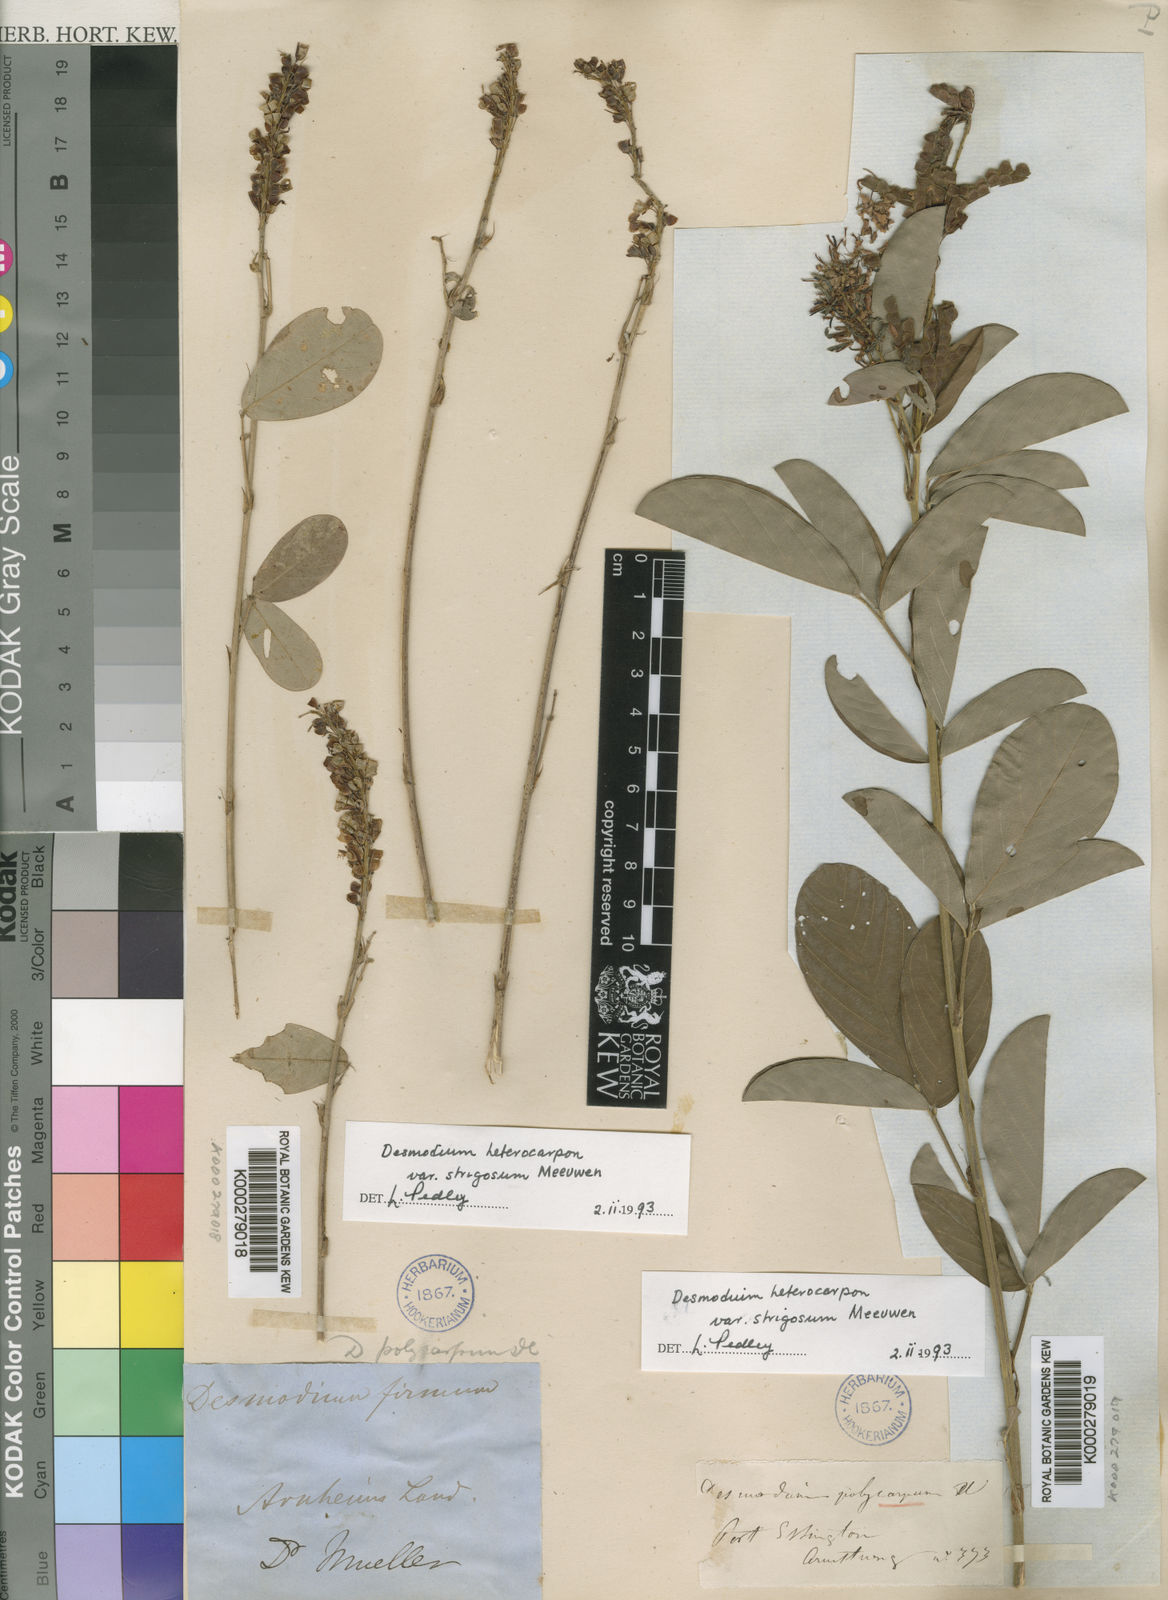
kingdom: Plantae
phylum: Tracheophyta
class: Magnoliopsida
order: Fabales
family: Fabaceae
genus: Grona
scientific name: Grona heterocarpos
